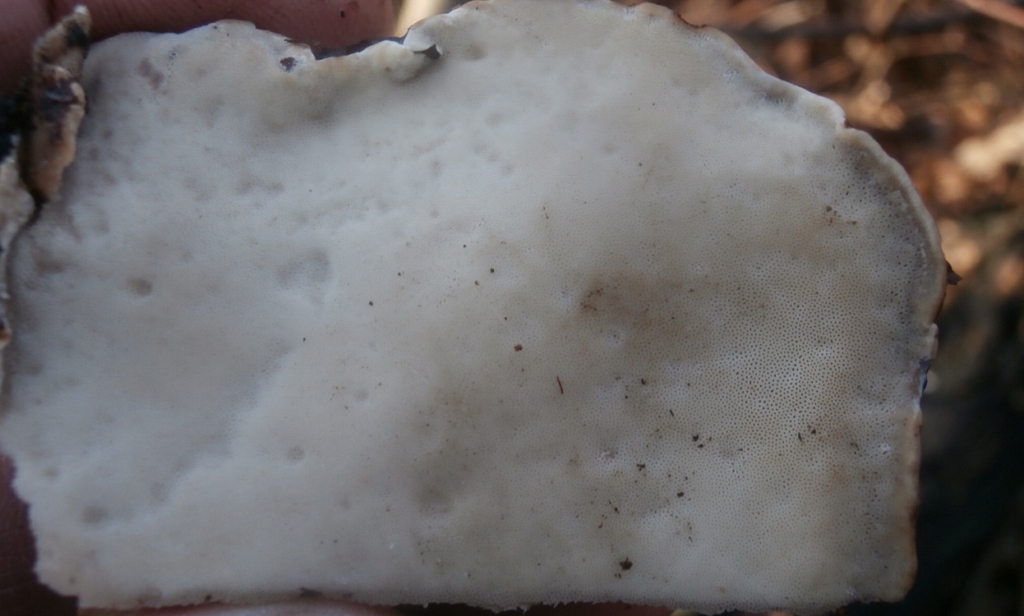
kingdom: Fungi
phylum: Basidiomycota
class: Agaricomycetes
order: Polyporales
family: Ischnodermataceae
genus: Ischnoderma
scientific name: Ischnoderma resinosum
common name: løv-tjæreporesvamp
